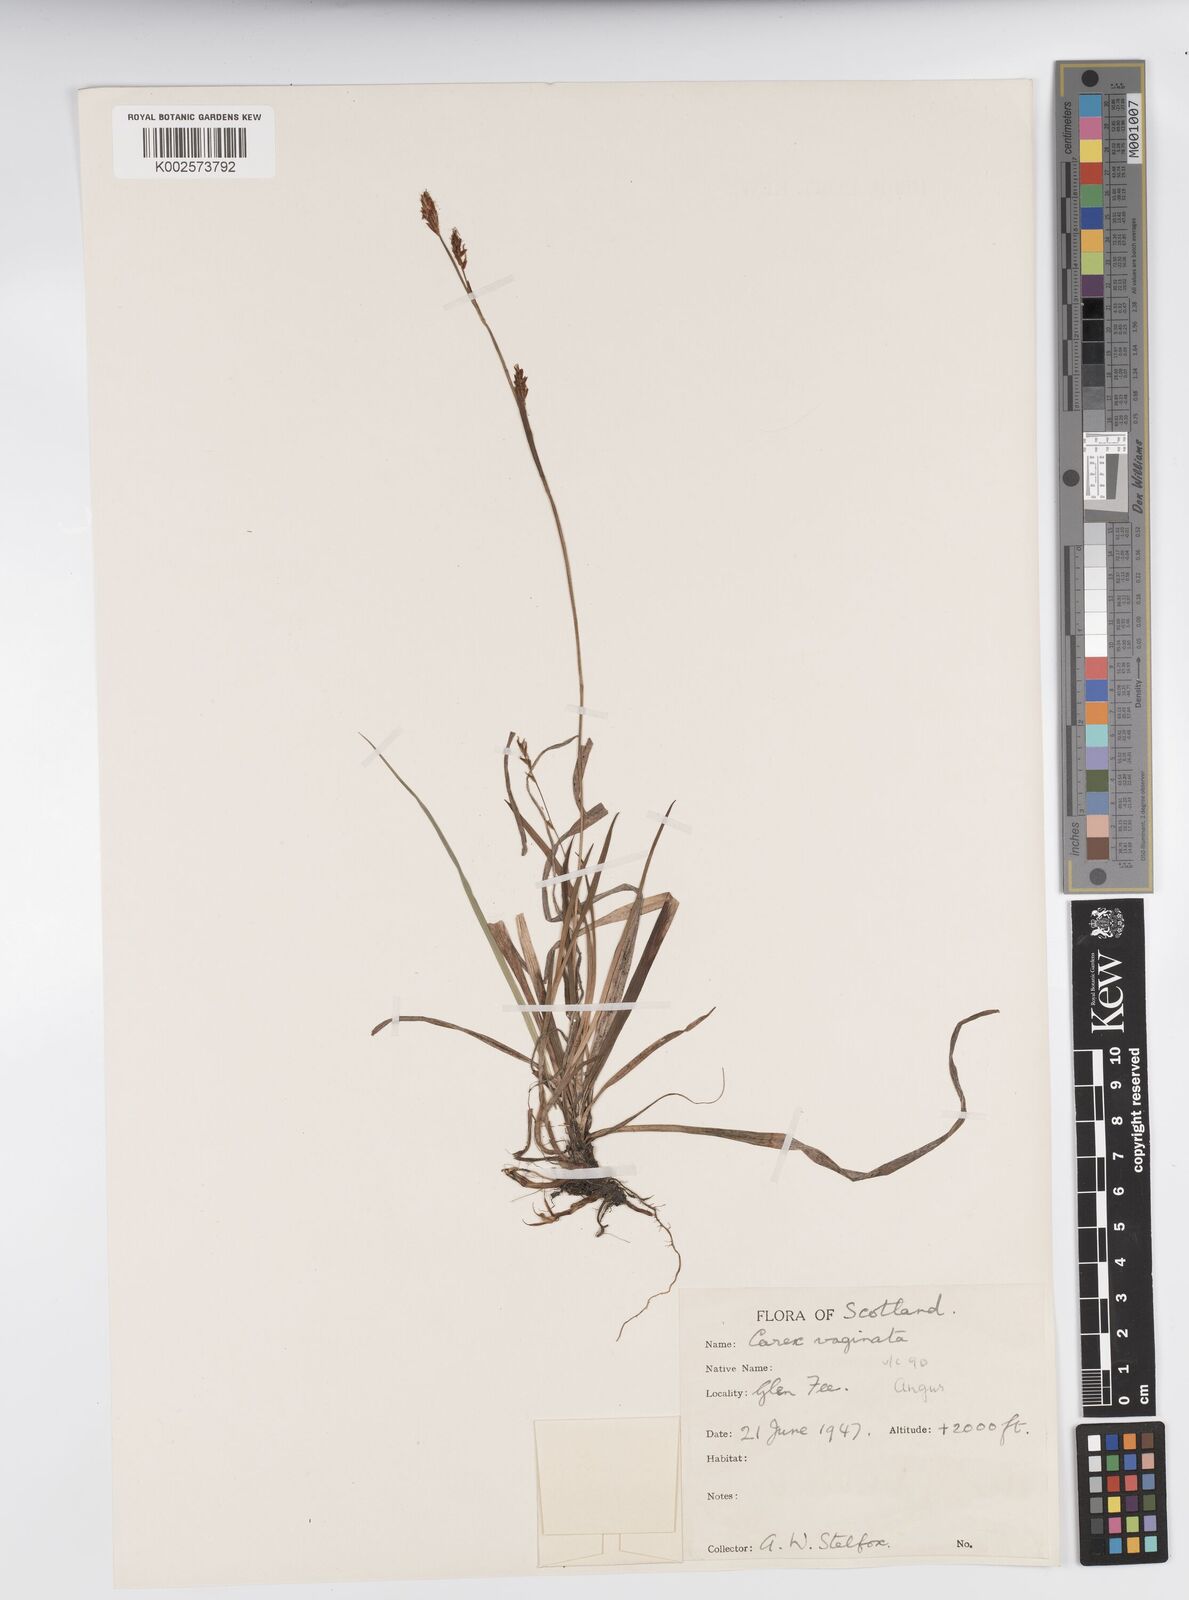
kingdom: Plantae
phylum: Tracheophyta
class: Liliopsida
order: Poales
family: Cyperaceae
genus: Carex
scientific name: Carex vaginata
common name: Sheathed sedge
